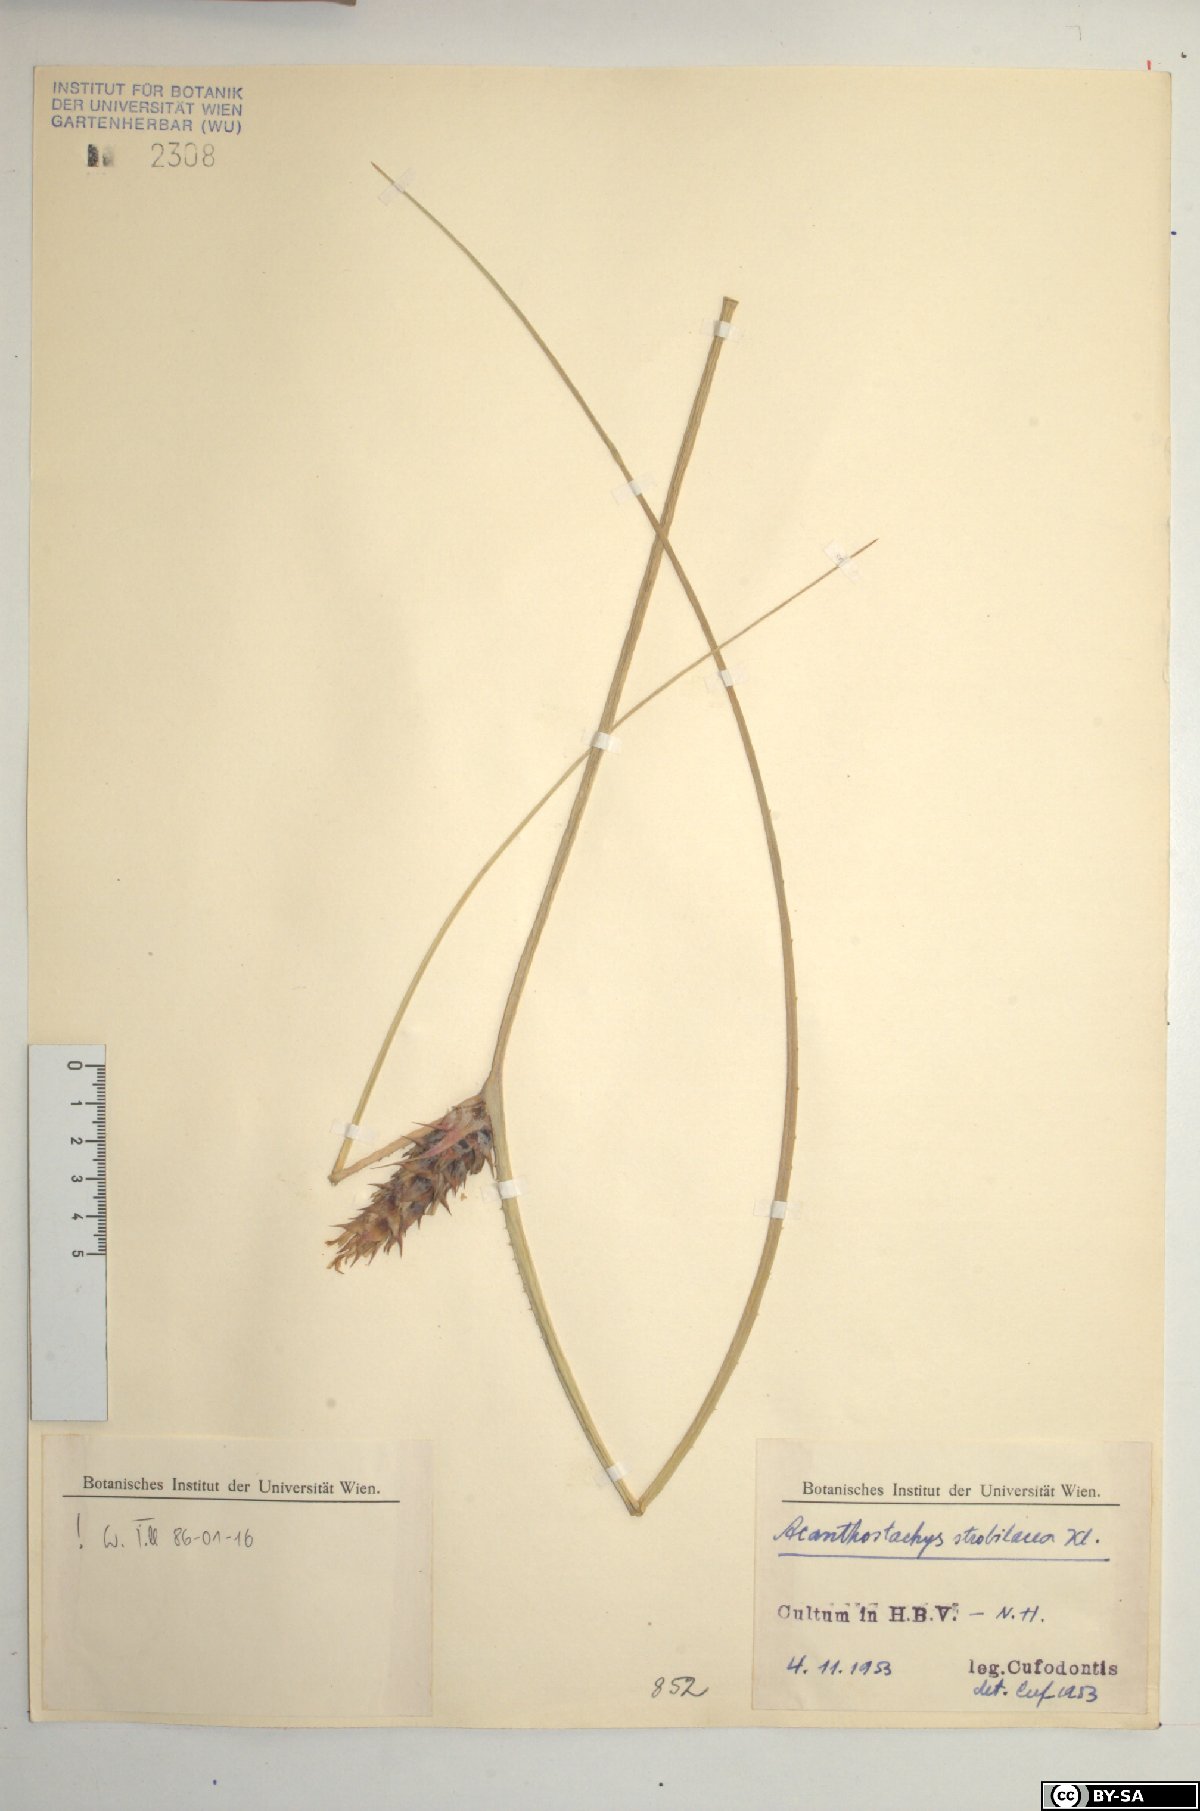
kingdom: Plantae
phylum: Tracheophyta
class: Liliopsida
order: Poales
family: Bromeliaceae
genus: Acanthostachys
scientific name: Acanthostachys strobilacea
